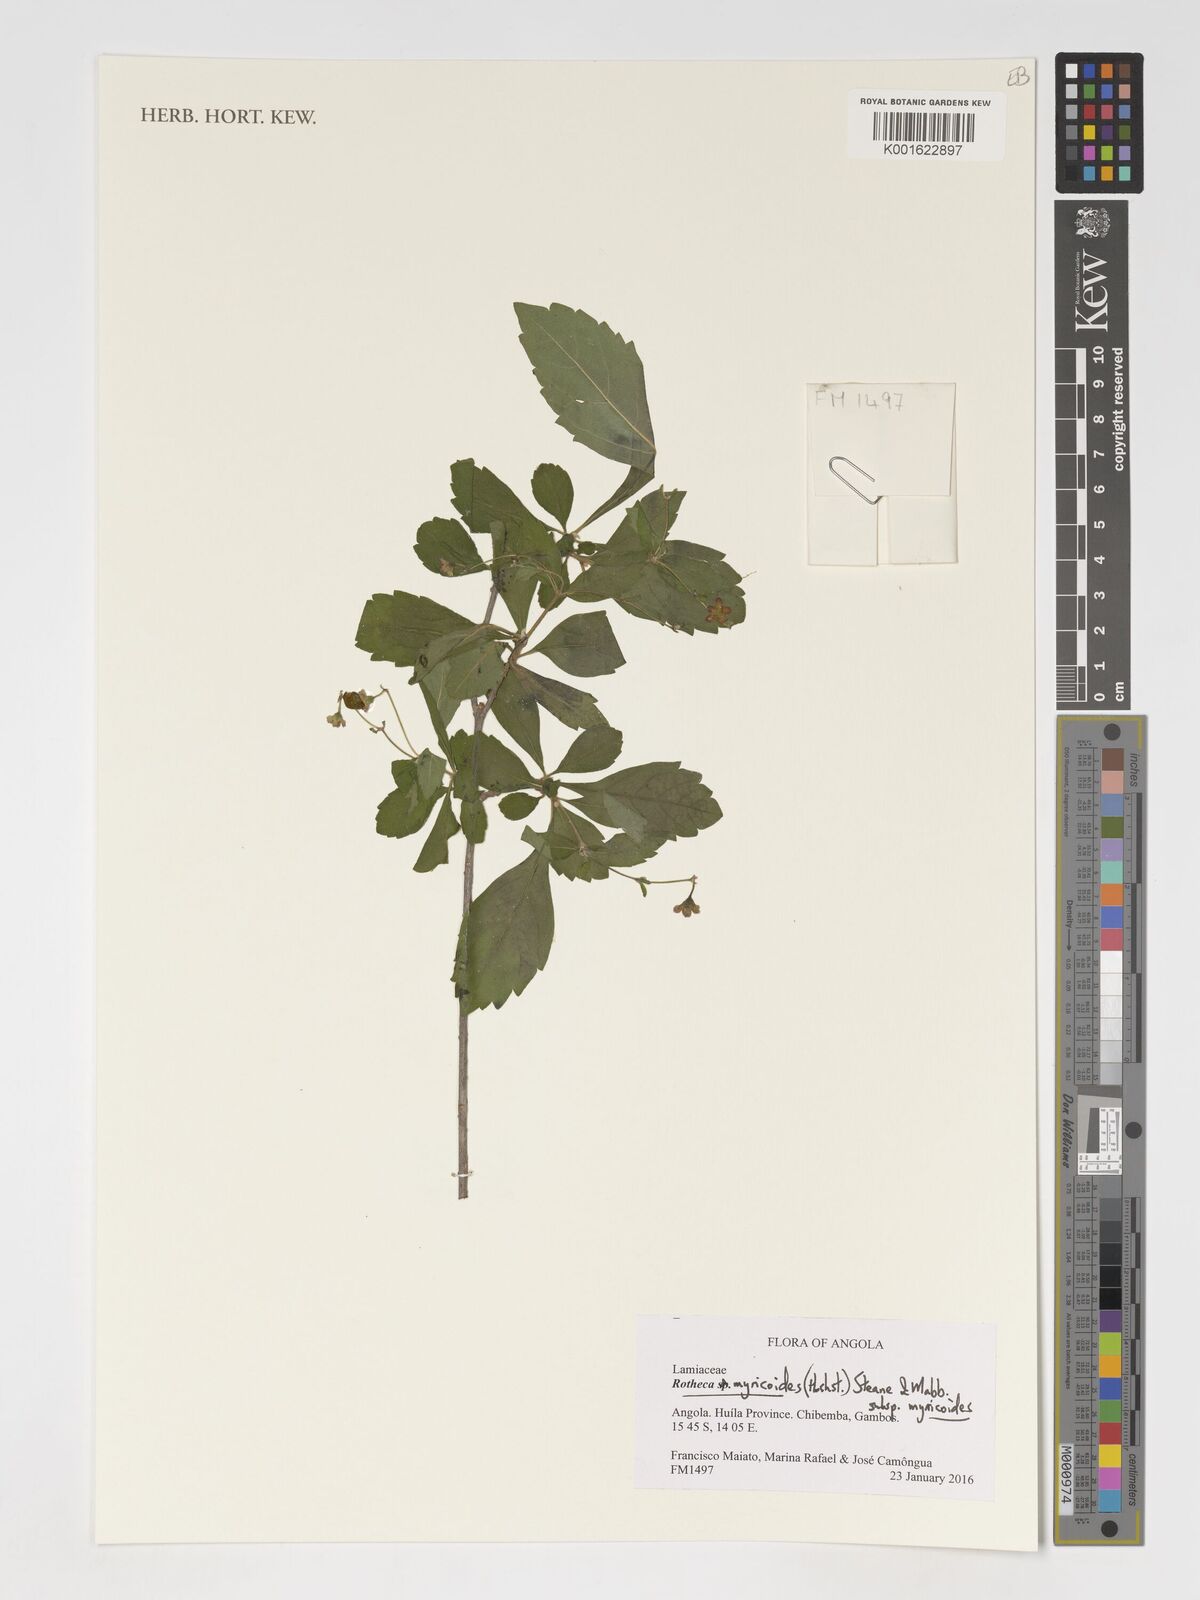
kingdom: Plantae
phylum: Tracheophyta
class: Magnoliopsida
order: Lamiales
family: Lamiaceae
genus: Rotheca
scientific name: Rotheca myricoides
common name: Cats-whiskers
